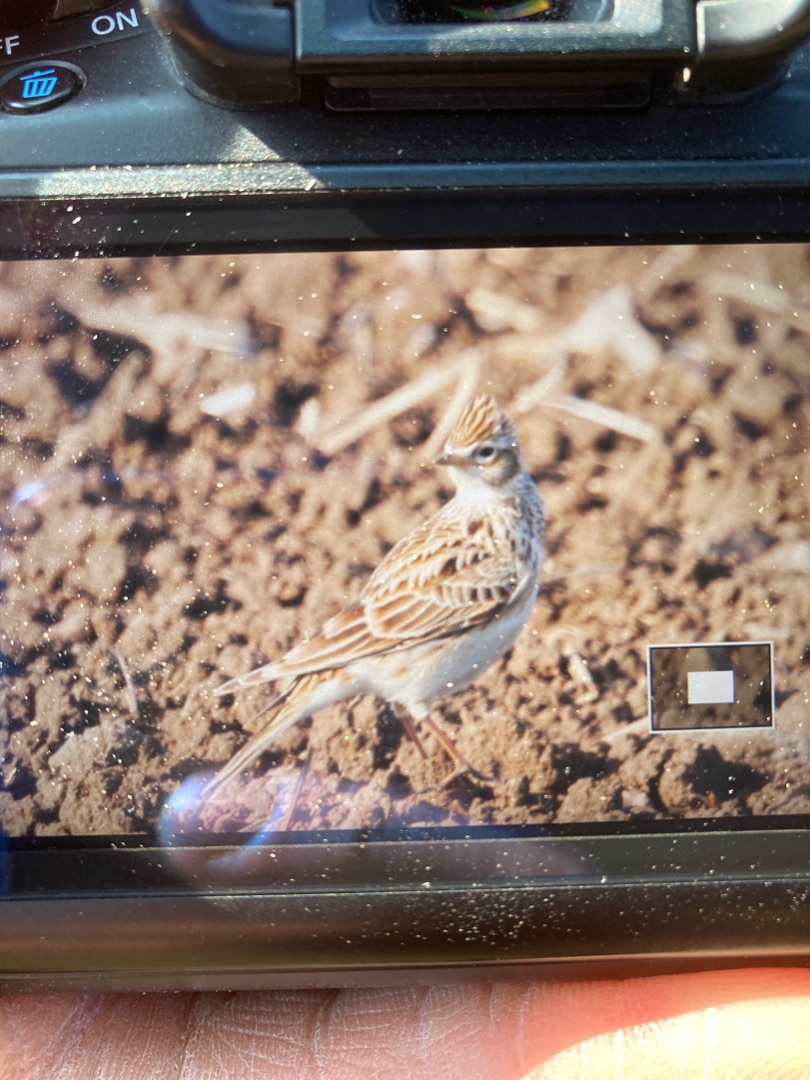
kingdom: Animalia
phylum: Chordata
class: Aves
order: Passeriformes
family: Alaudidae
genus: Alauda
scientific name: Alauda arvensis
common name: Sanglærke
